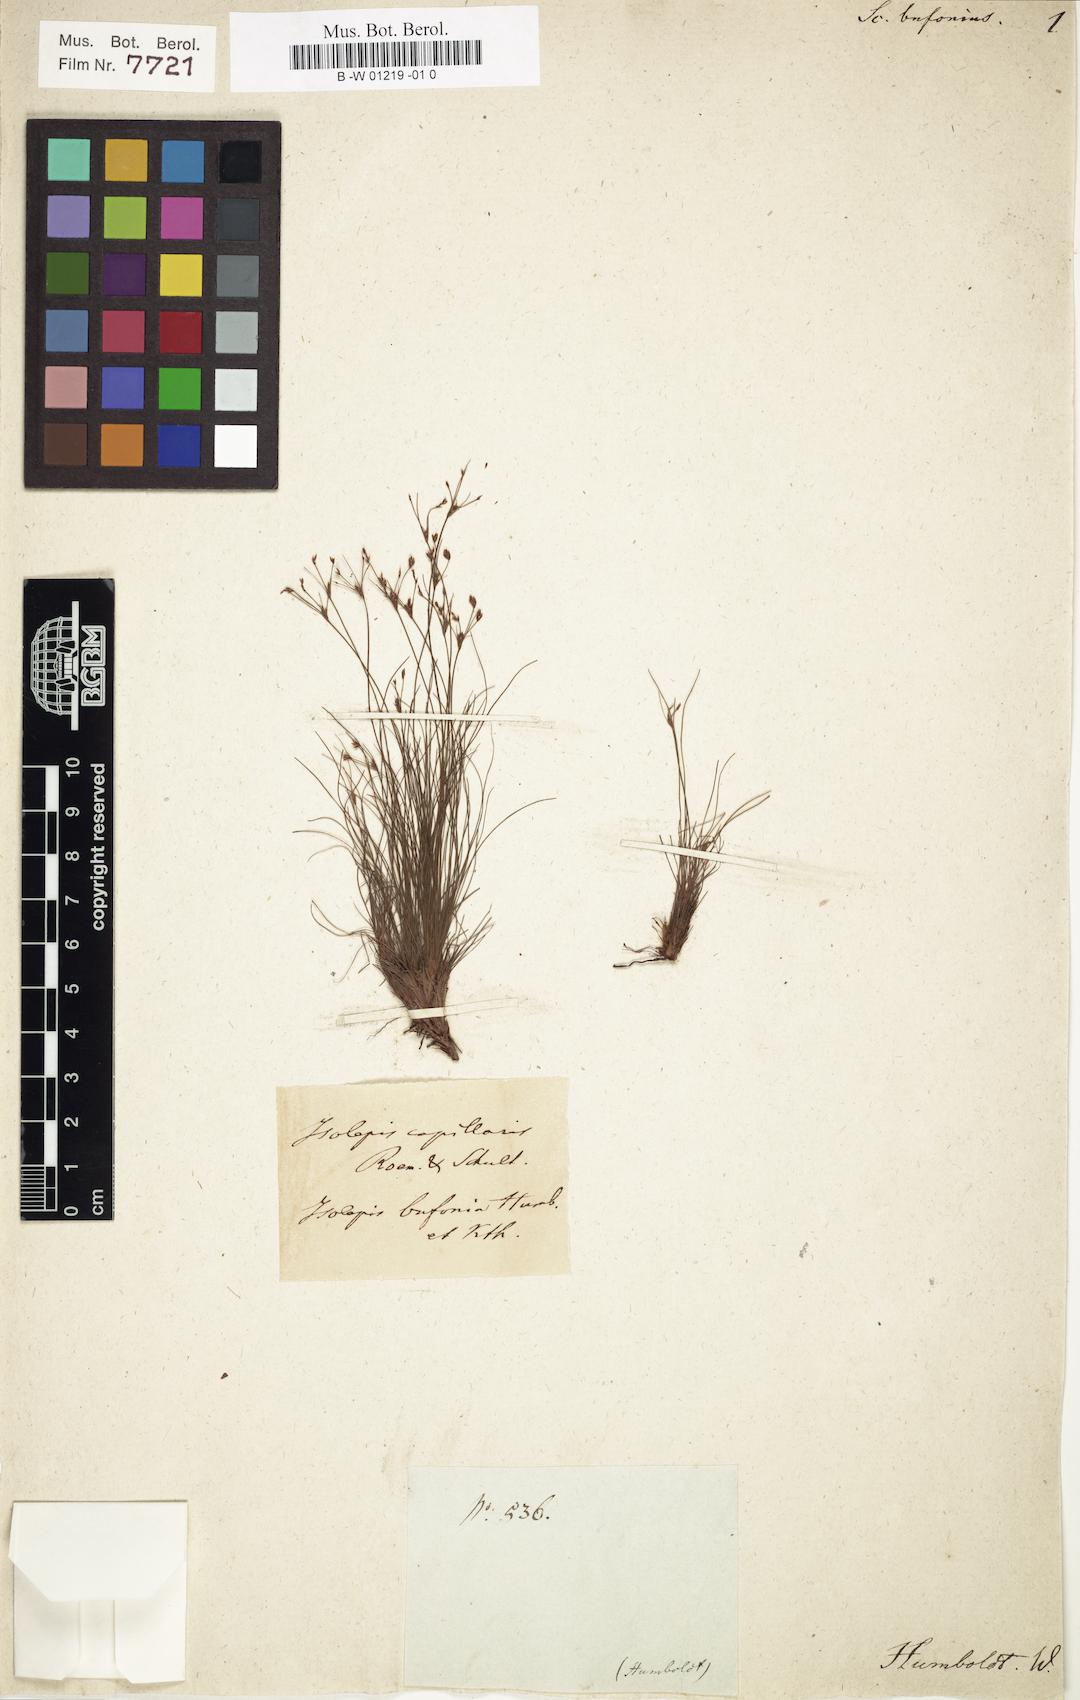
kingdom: Plantae
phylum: Tracheophyta
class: Liliopsida
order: Poales
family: Cyperaceae
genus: Scirpus
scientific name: Scirpus bufonius
